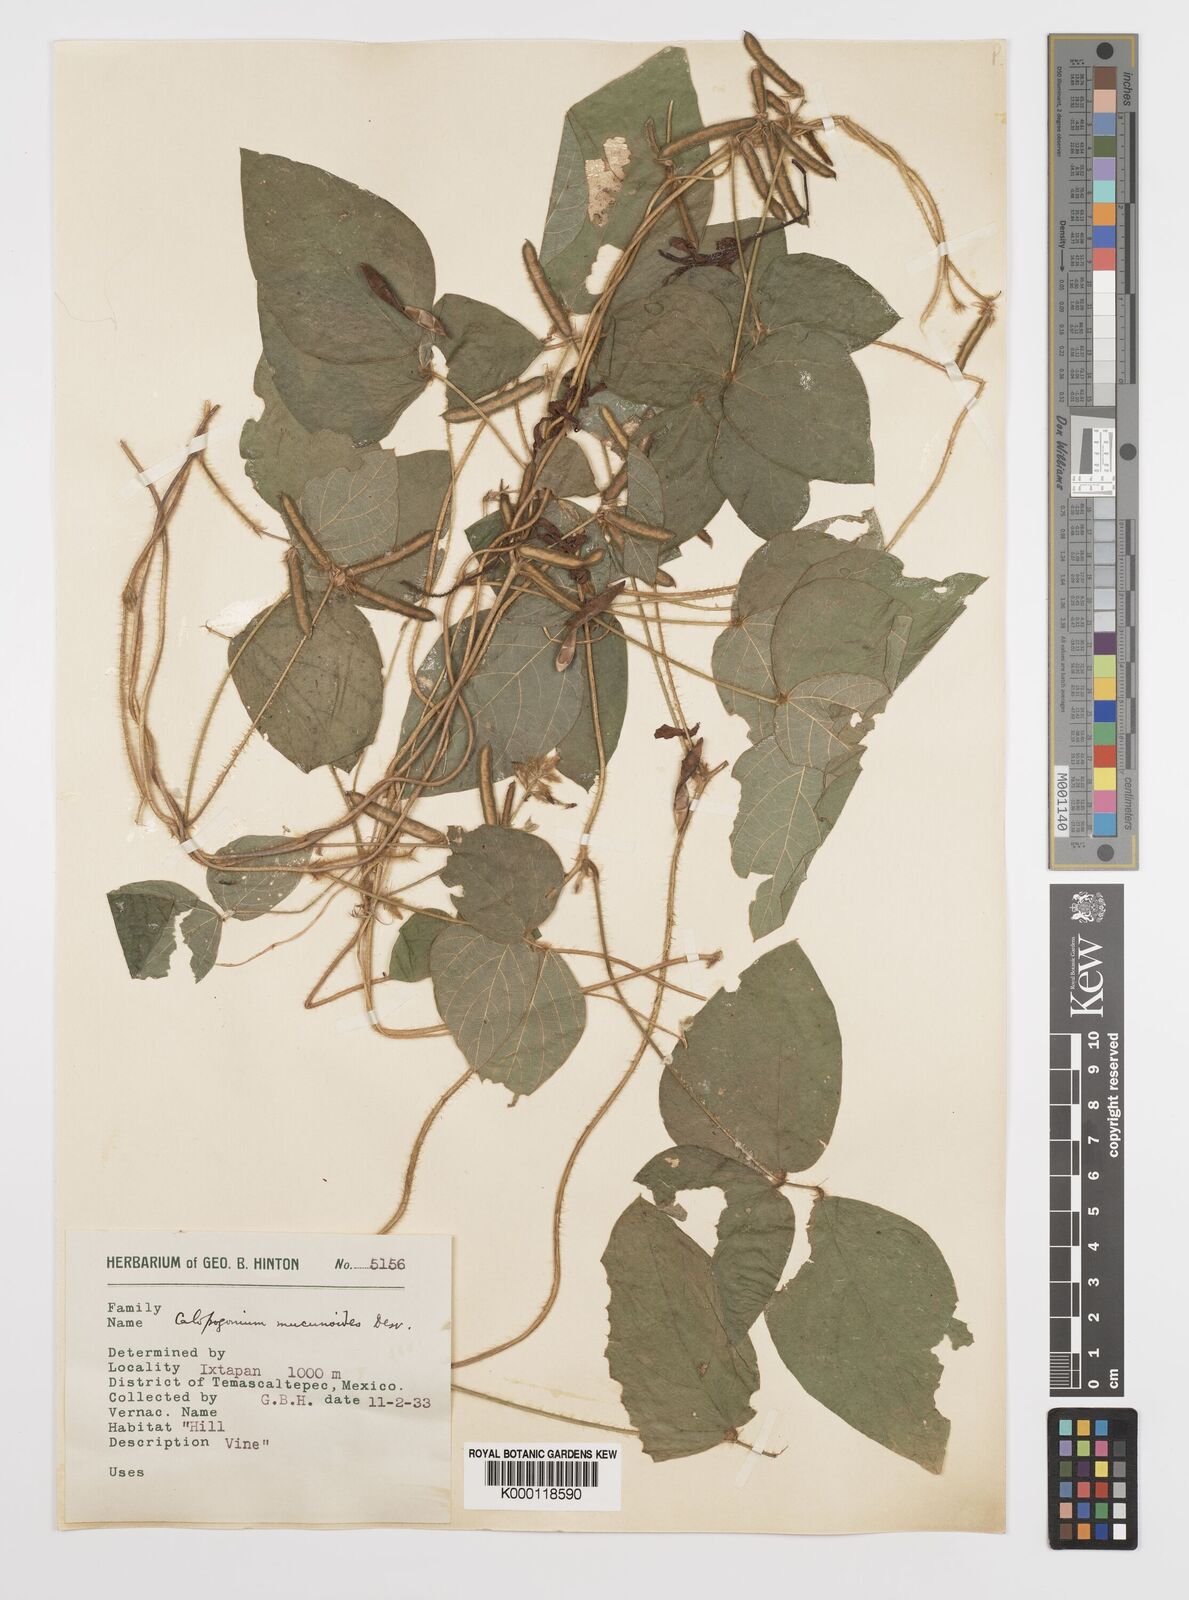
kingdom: Plantae
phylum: Tracheophyta
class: Magnoliopsida
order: Fabales
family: Fabaceae
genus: Calopogonium
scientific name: Calopogonium mucunoides
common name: Calopo
